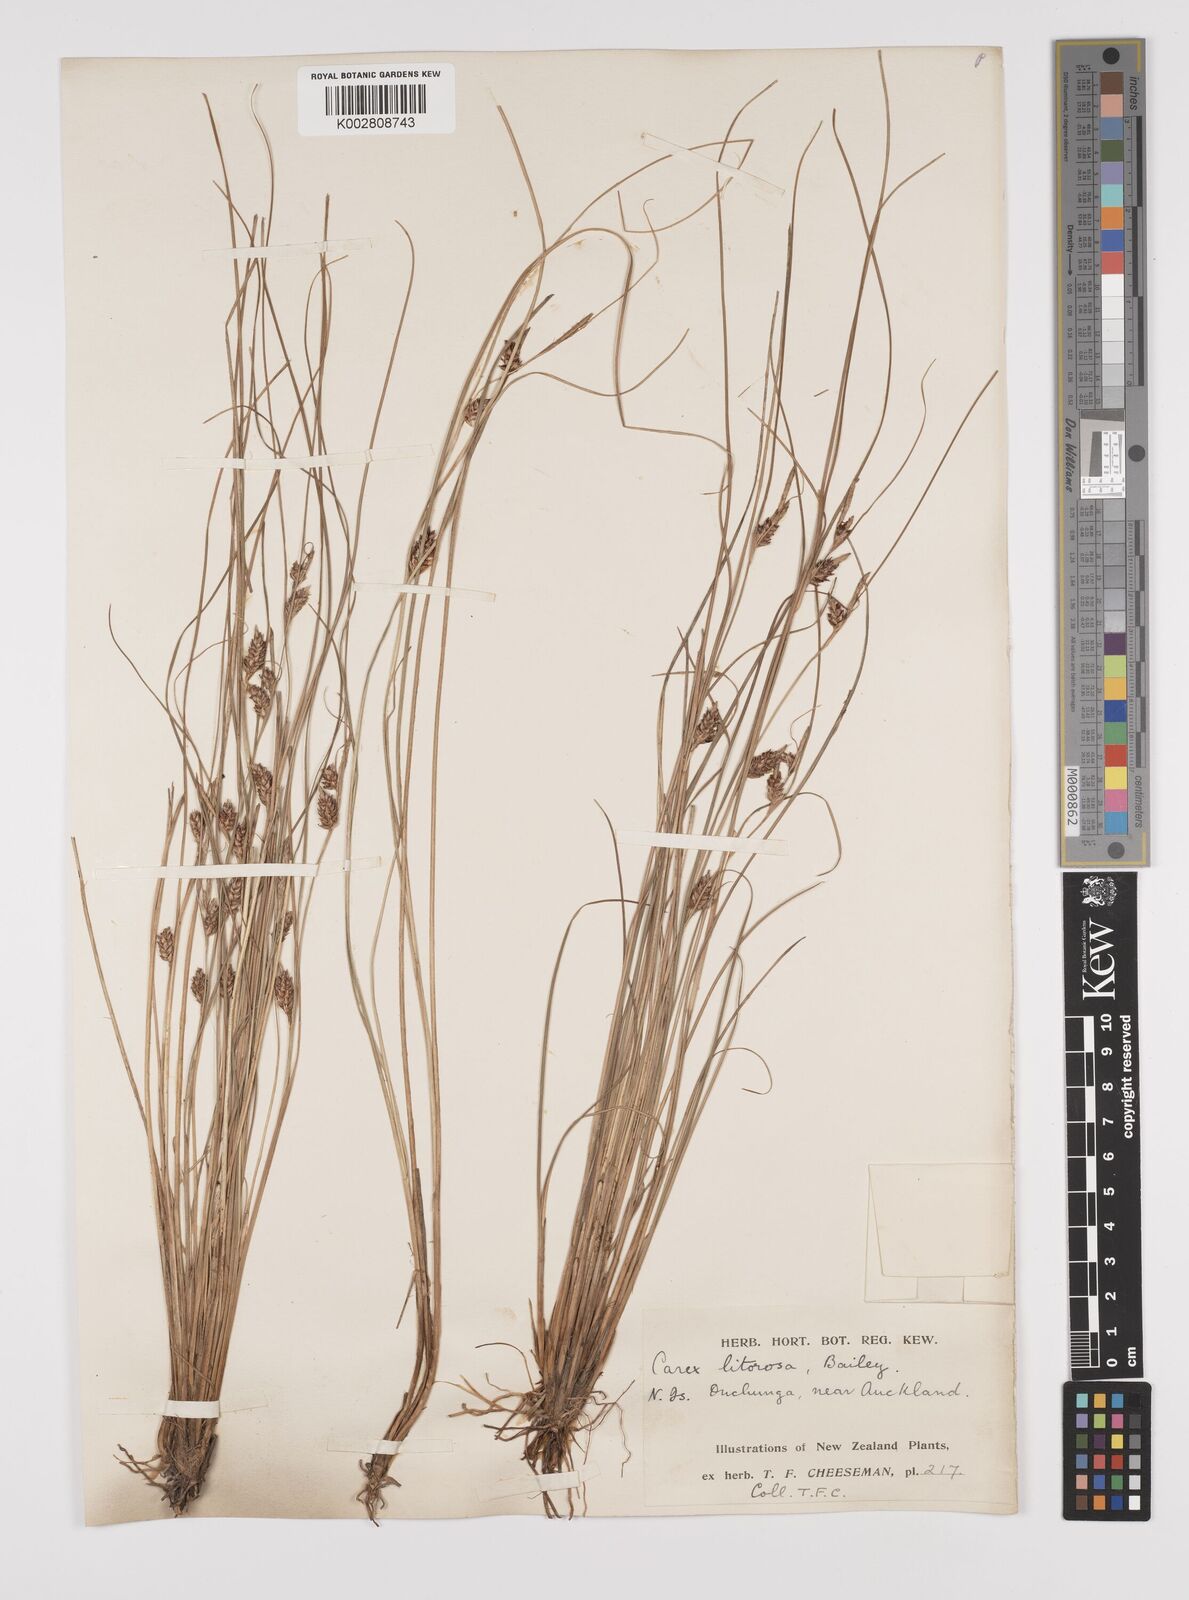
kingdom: Plantae
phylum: Tracheophyta
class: Liliopsida
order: Poales
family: Cyperaceae
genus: Carex
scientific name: Carex litorosa
